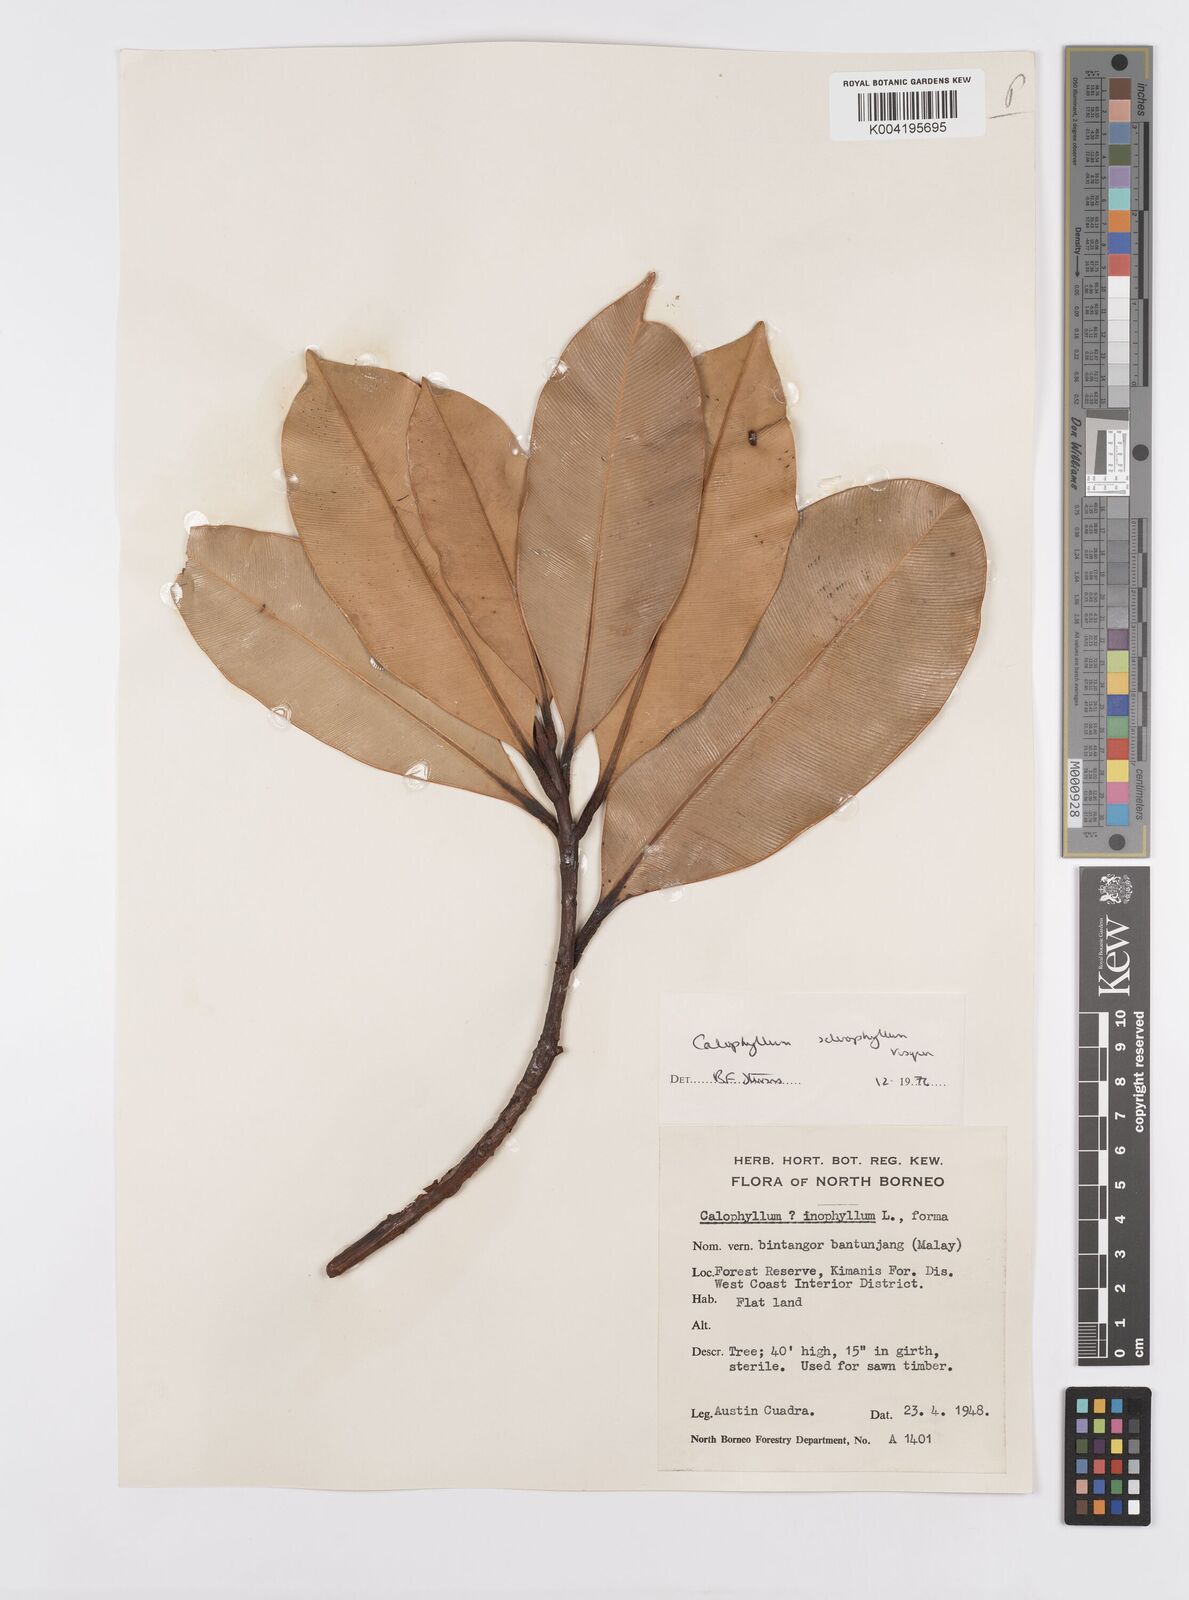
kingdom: Plantae
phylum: Tracheophyta
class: Magnoliopsida
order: Malpighiales
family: Calophyllaceae
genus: Calophyllum
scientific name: Calophyllum sclerophyllum
